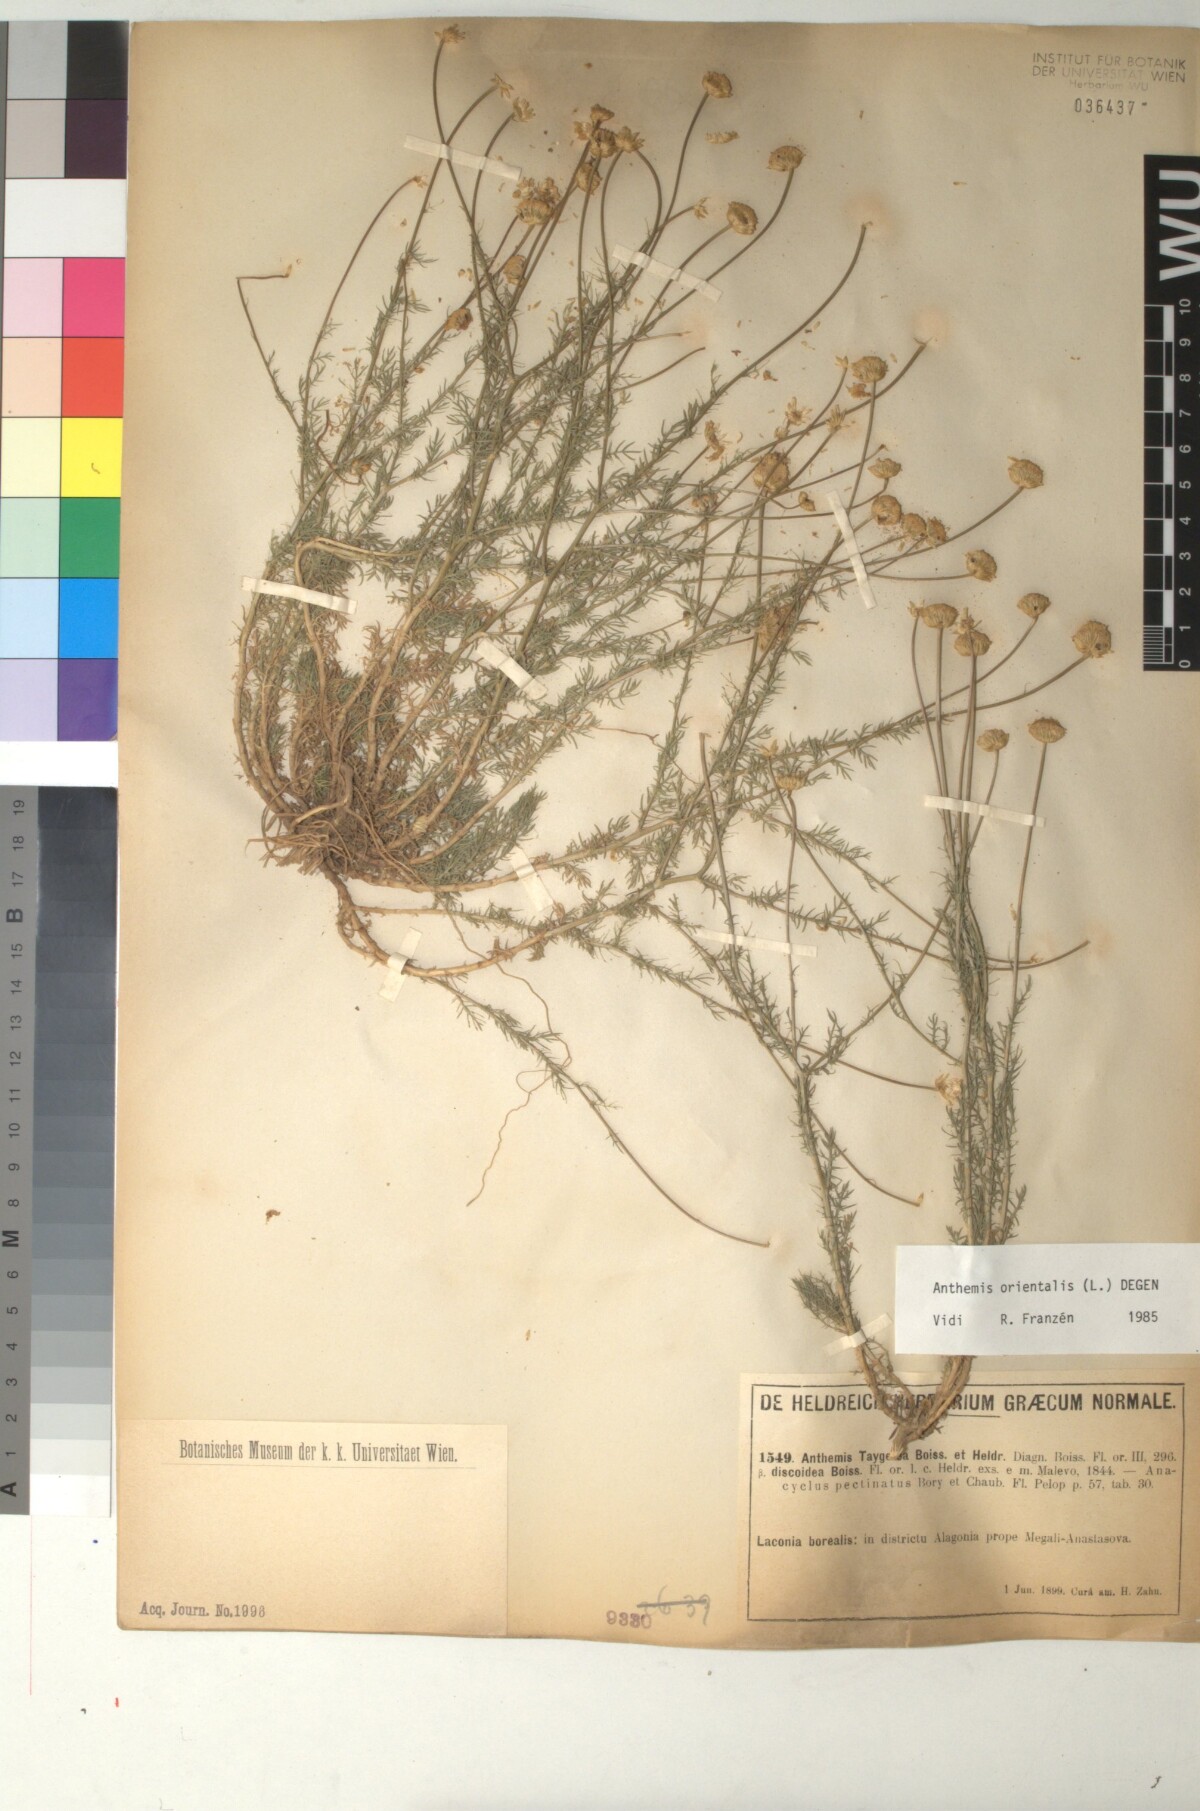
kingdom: Plantae
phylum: Tracheophyta
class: Magnoliopsida
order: Asterales
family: Asteraceae
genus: Anthemis
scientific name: Anthemis orientalis
